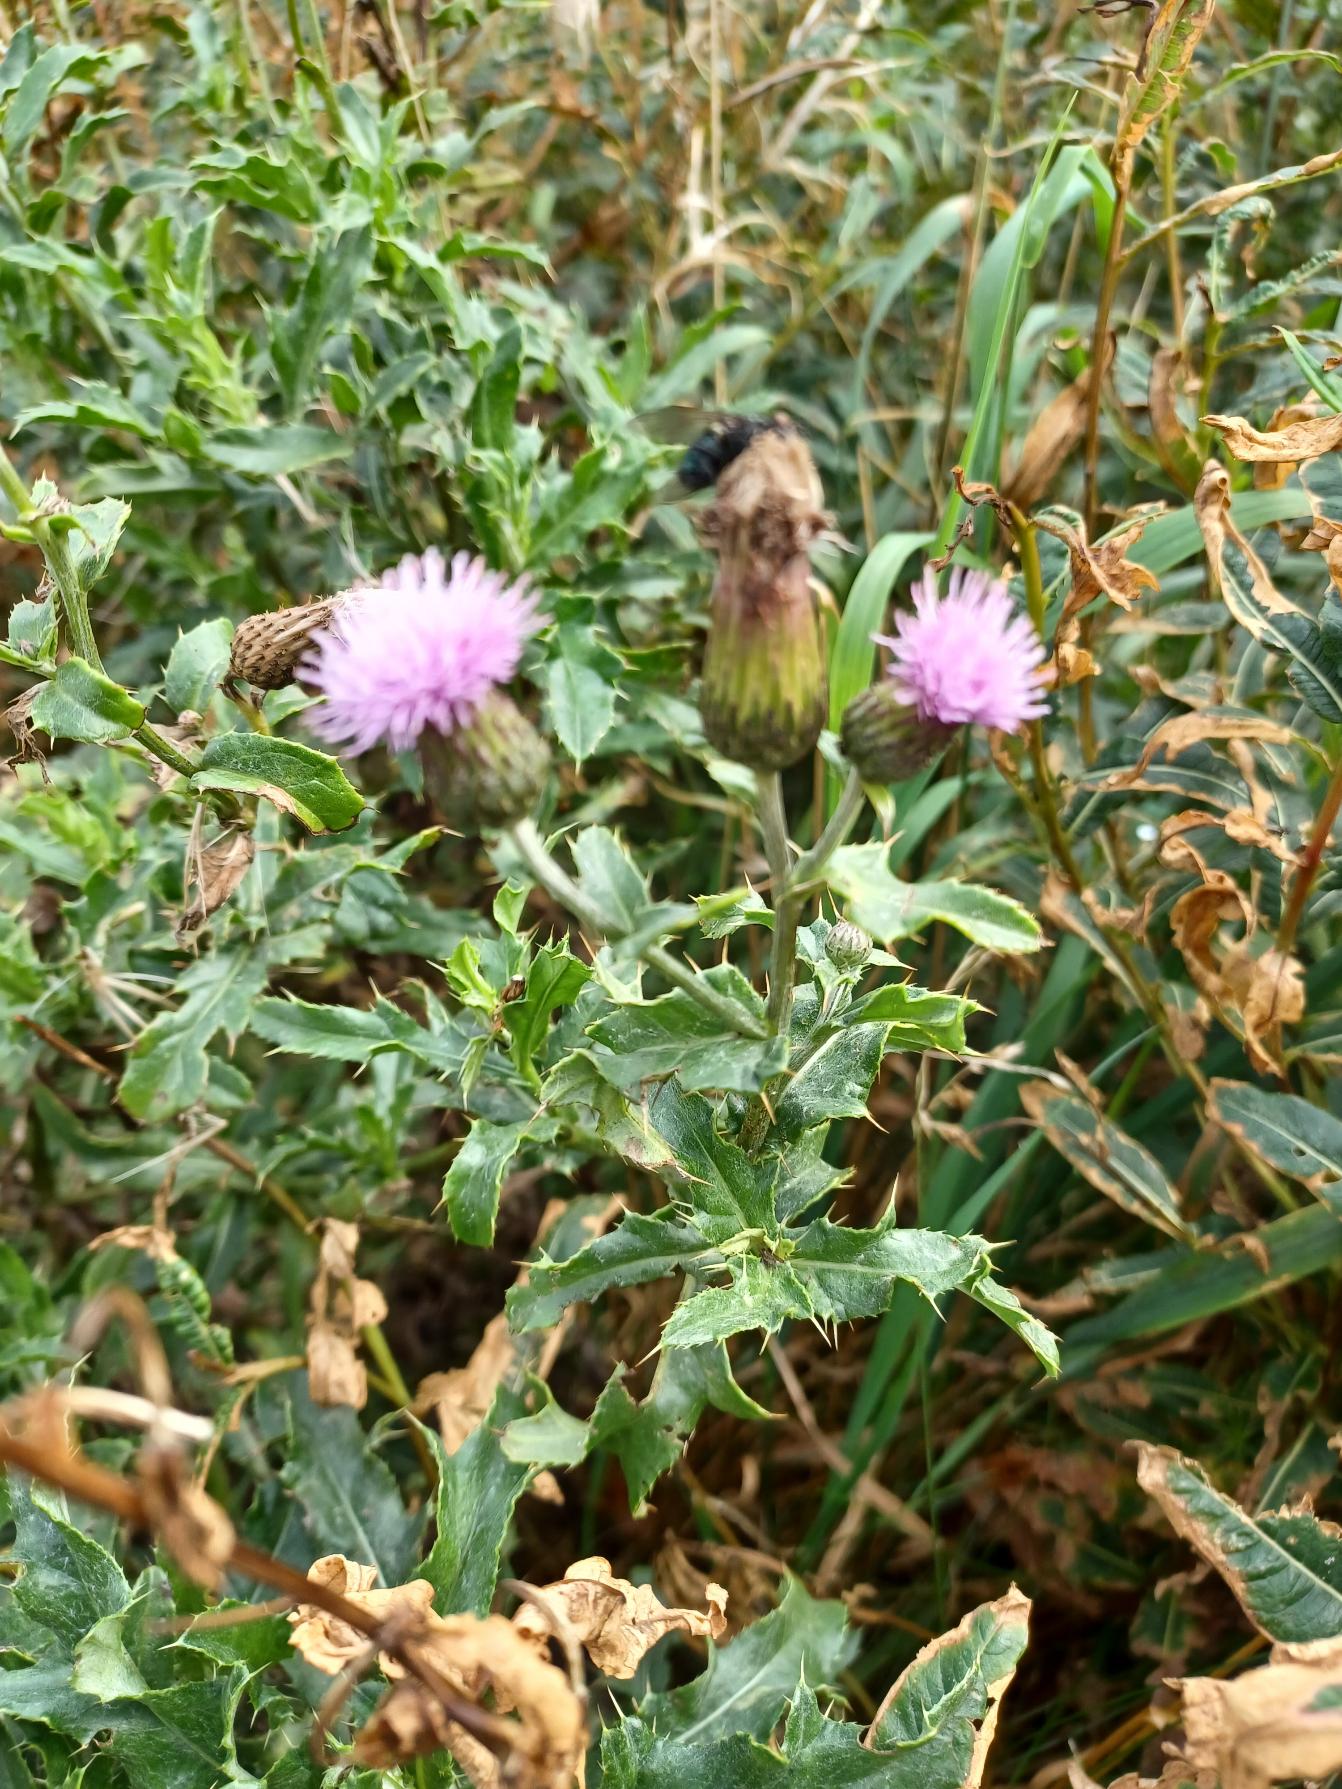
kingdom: Plantae
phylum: Tracheophyta
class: Magnoliopsida
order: Asterales
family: Asteraceae
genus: Cirsium
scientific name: Cirsium arvense
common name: Ager-tidsel
